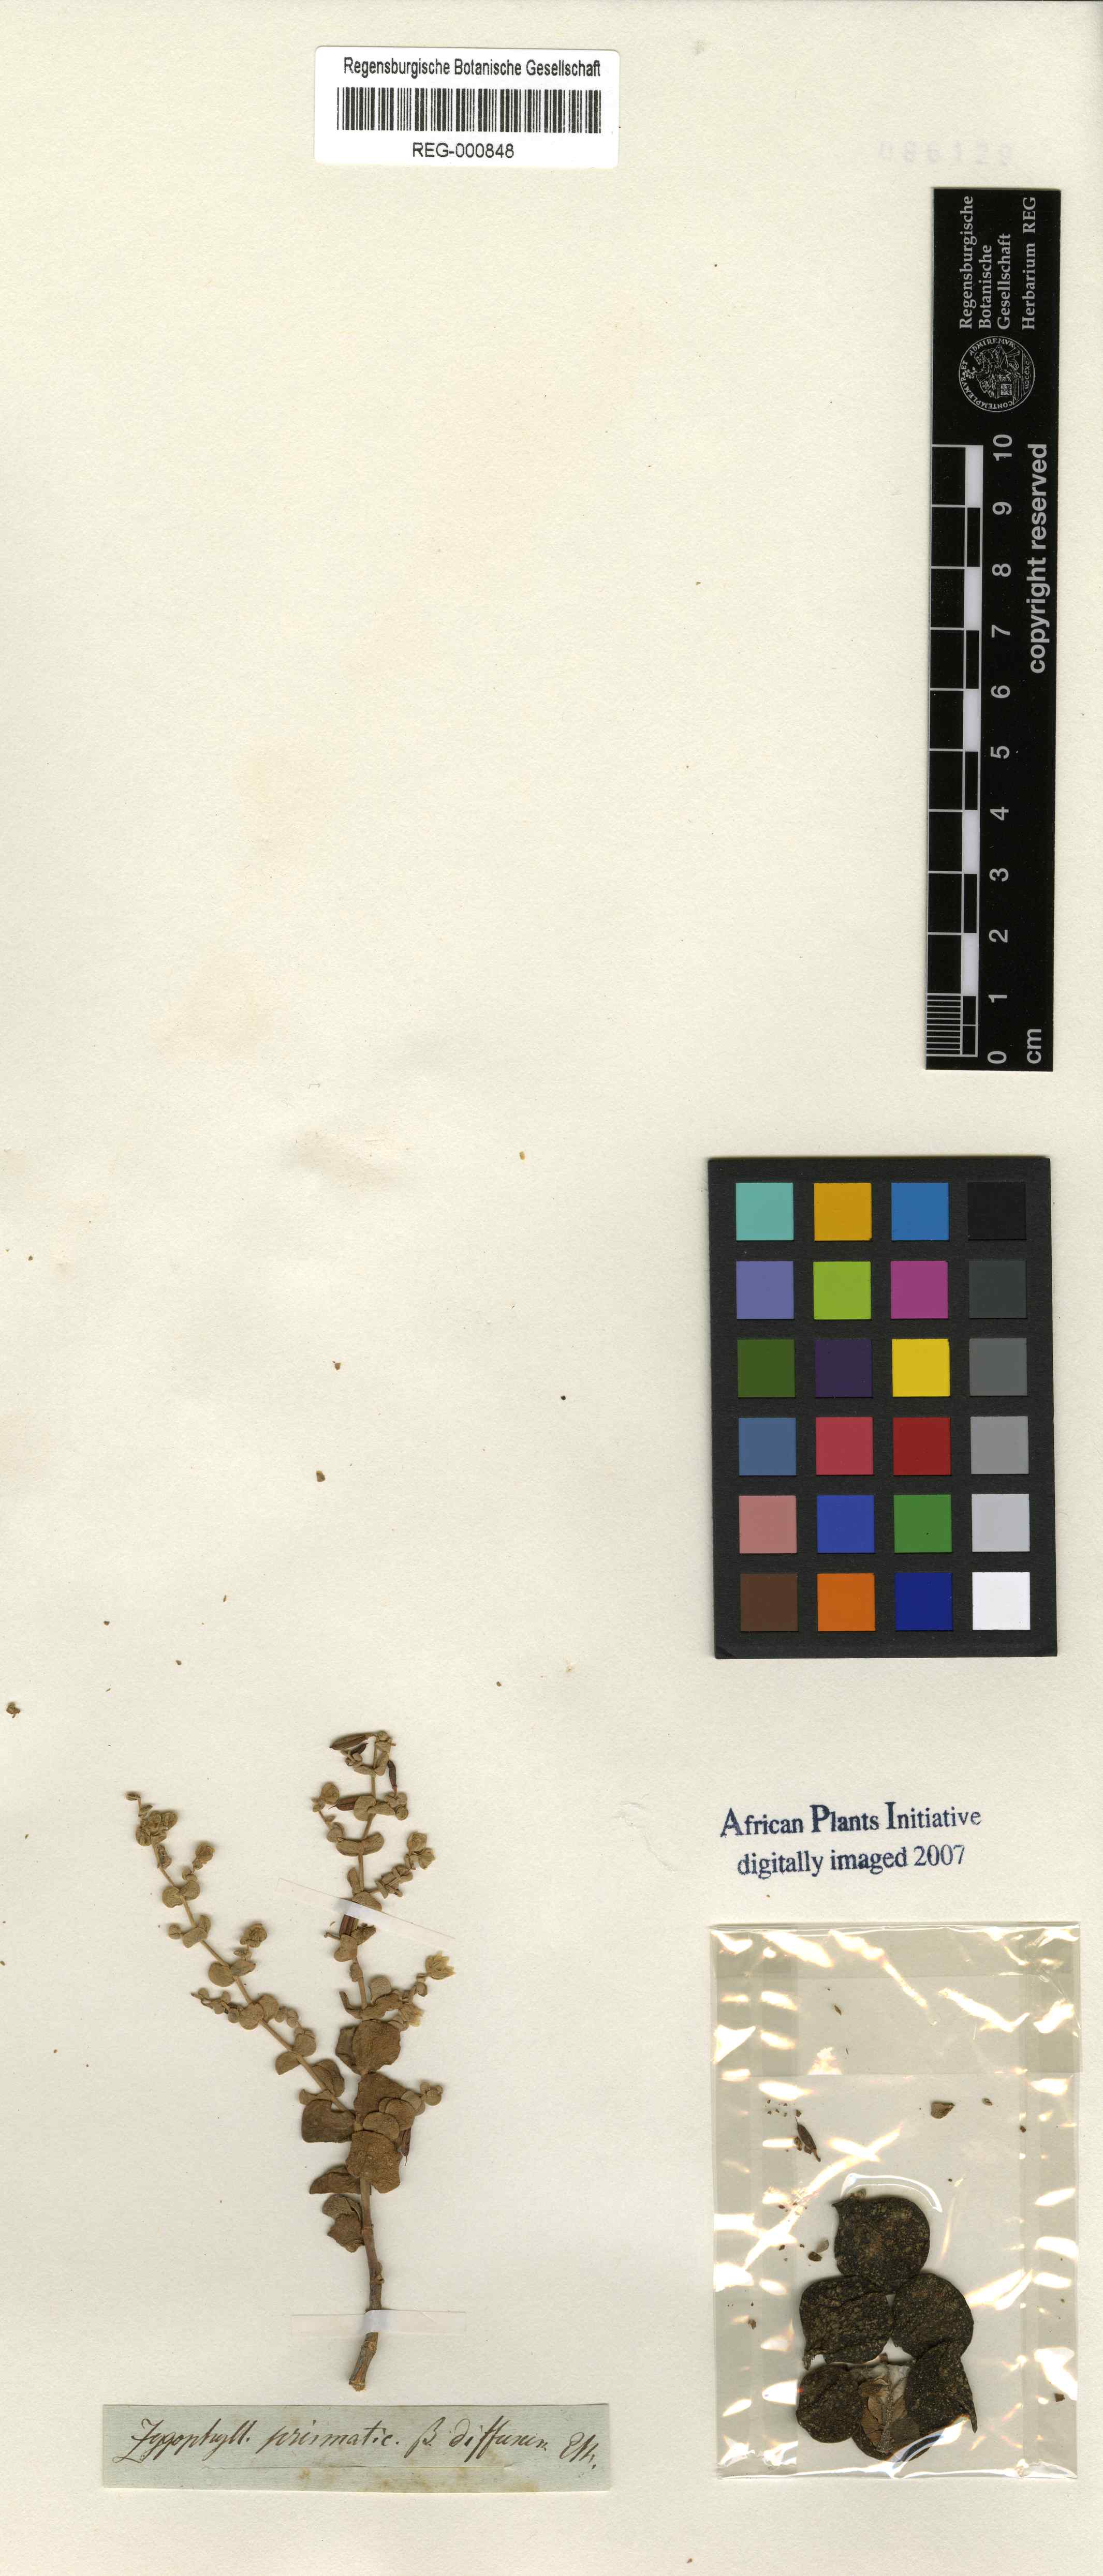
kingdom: Plantae
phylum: Tracheophyta
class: Magnoliopsida
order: Zygophyllales
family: Zygophyllaceae
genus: Tetraena
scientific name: Tetraena
